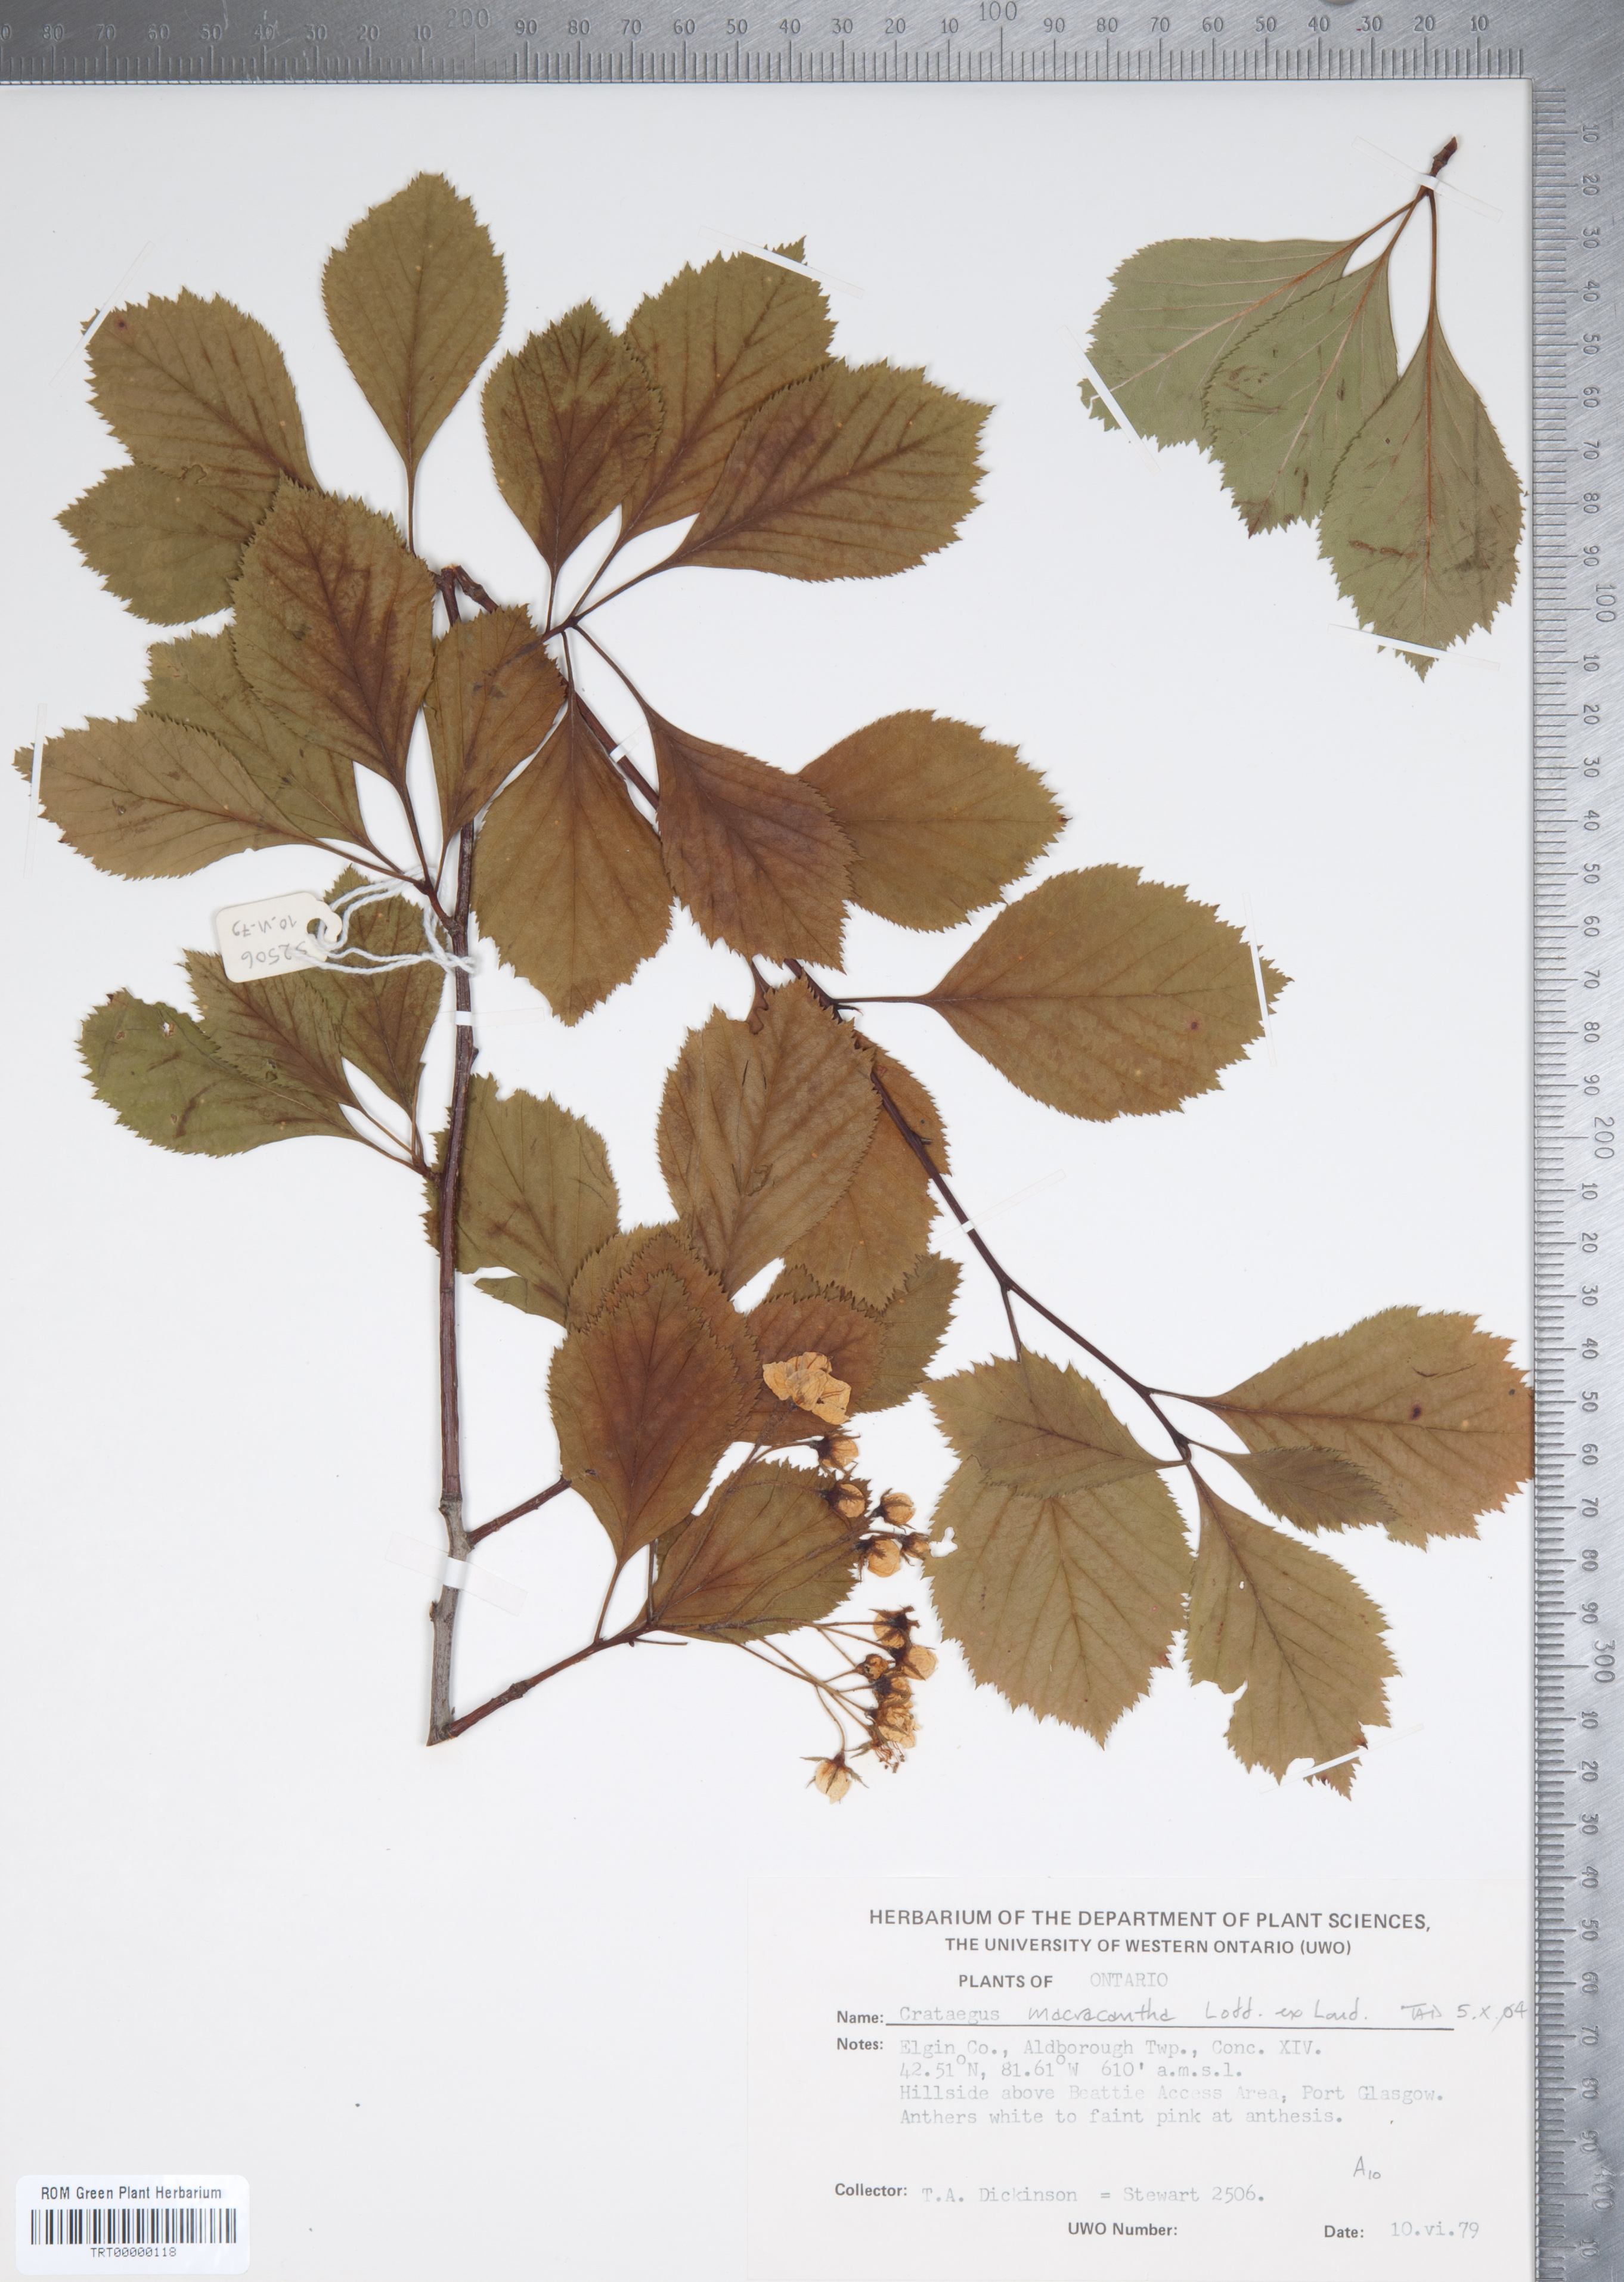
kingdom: Plantae
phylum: Tracheophyta
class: Magnoliopsida
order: Rosales
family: Rosaceae
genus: Crataegus
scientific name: Crataegus macracantha
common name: Large-thorn hawthorn
